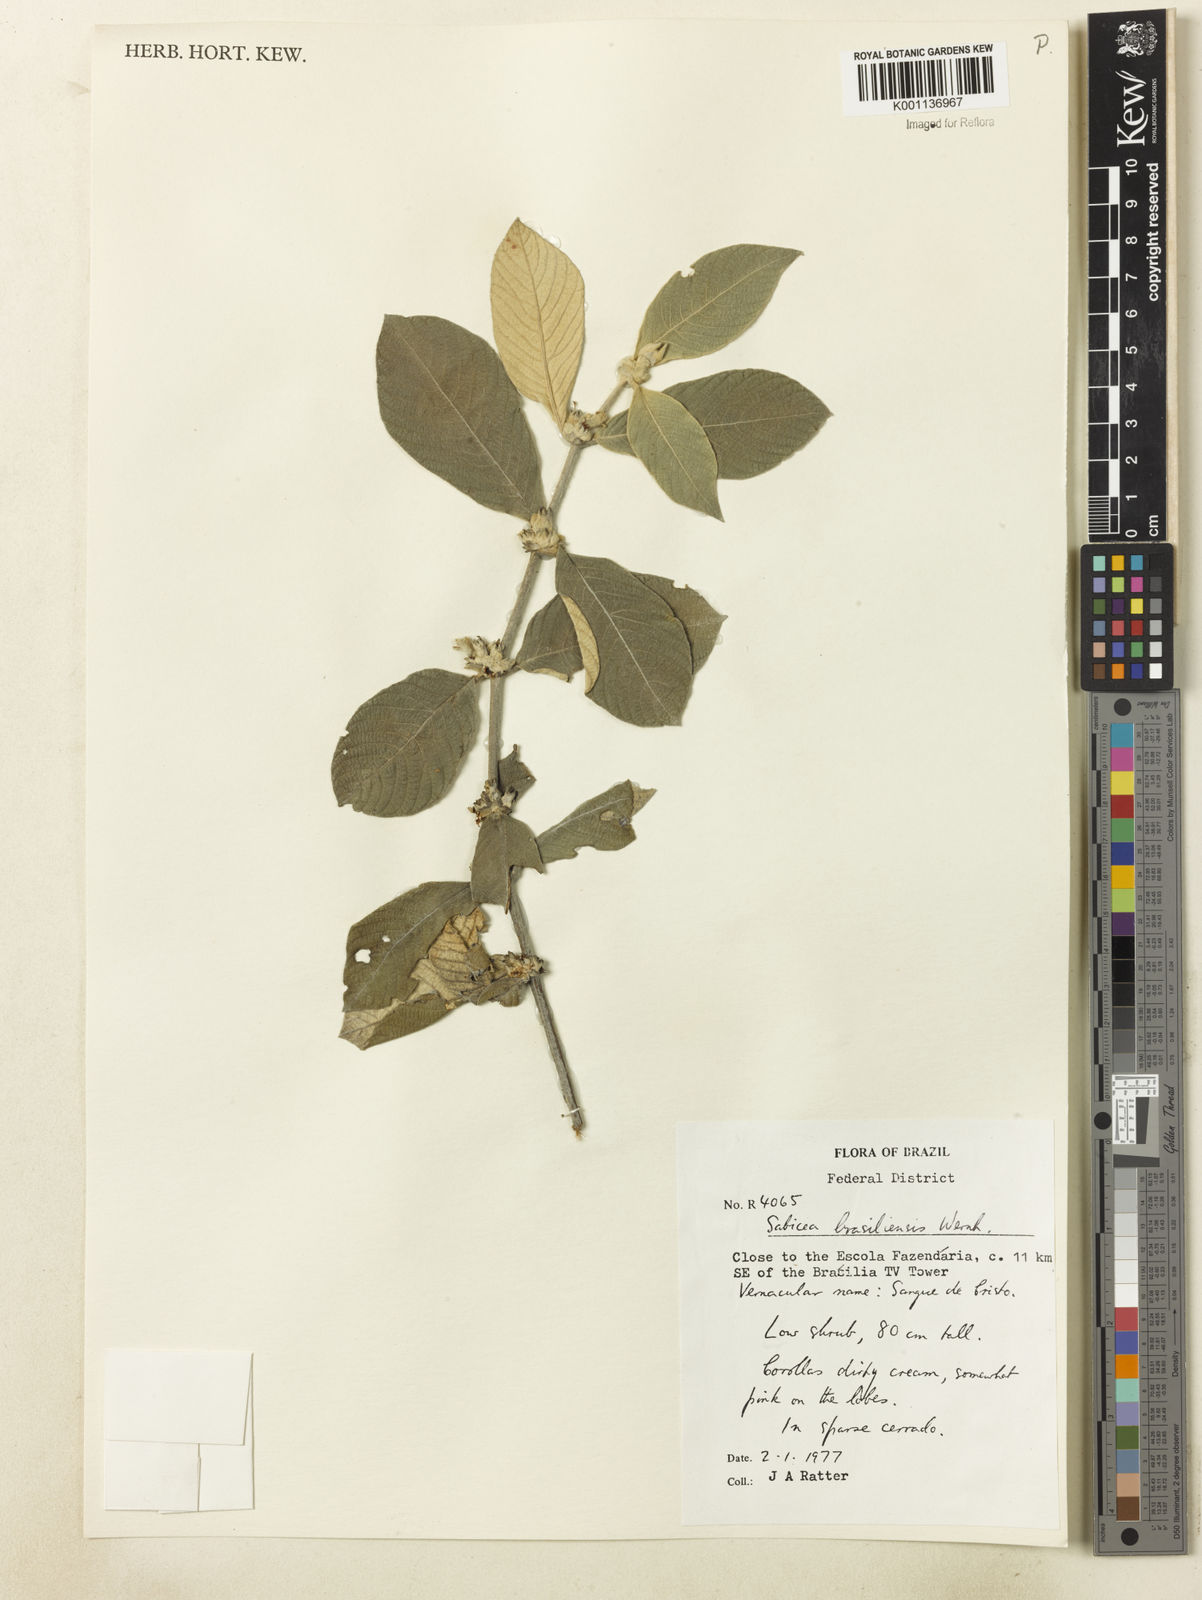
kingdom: Plantae
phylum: Tracheophyta
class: Magnoliopsida
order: Gentianales
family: Rubiaceae
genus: Sabicea
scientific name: Sabicea brasiliensis
